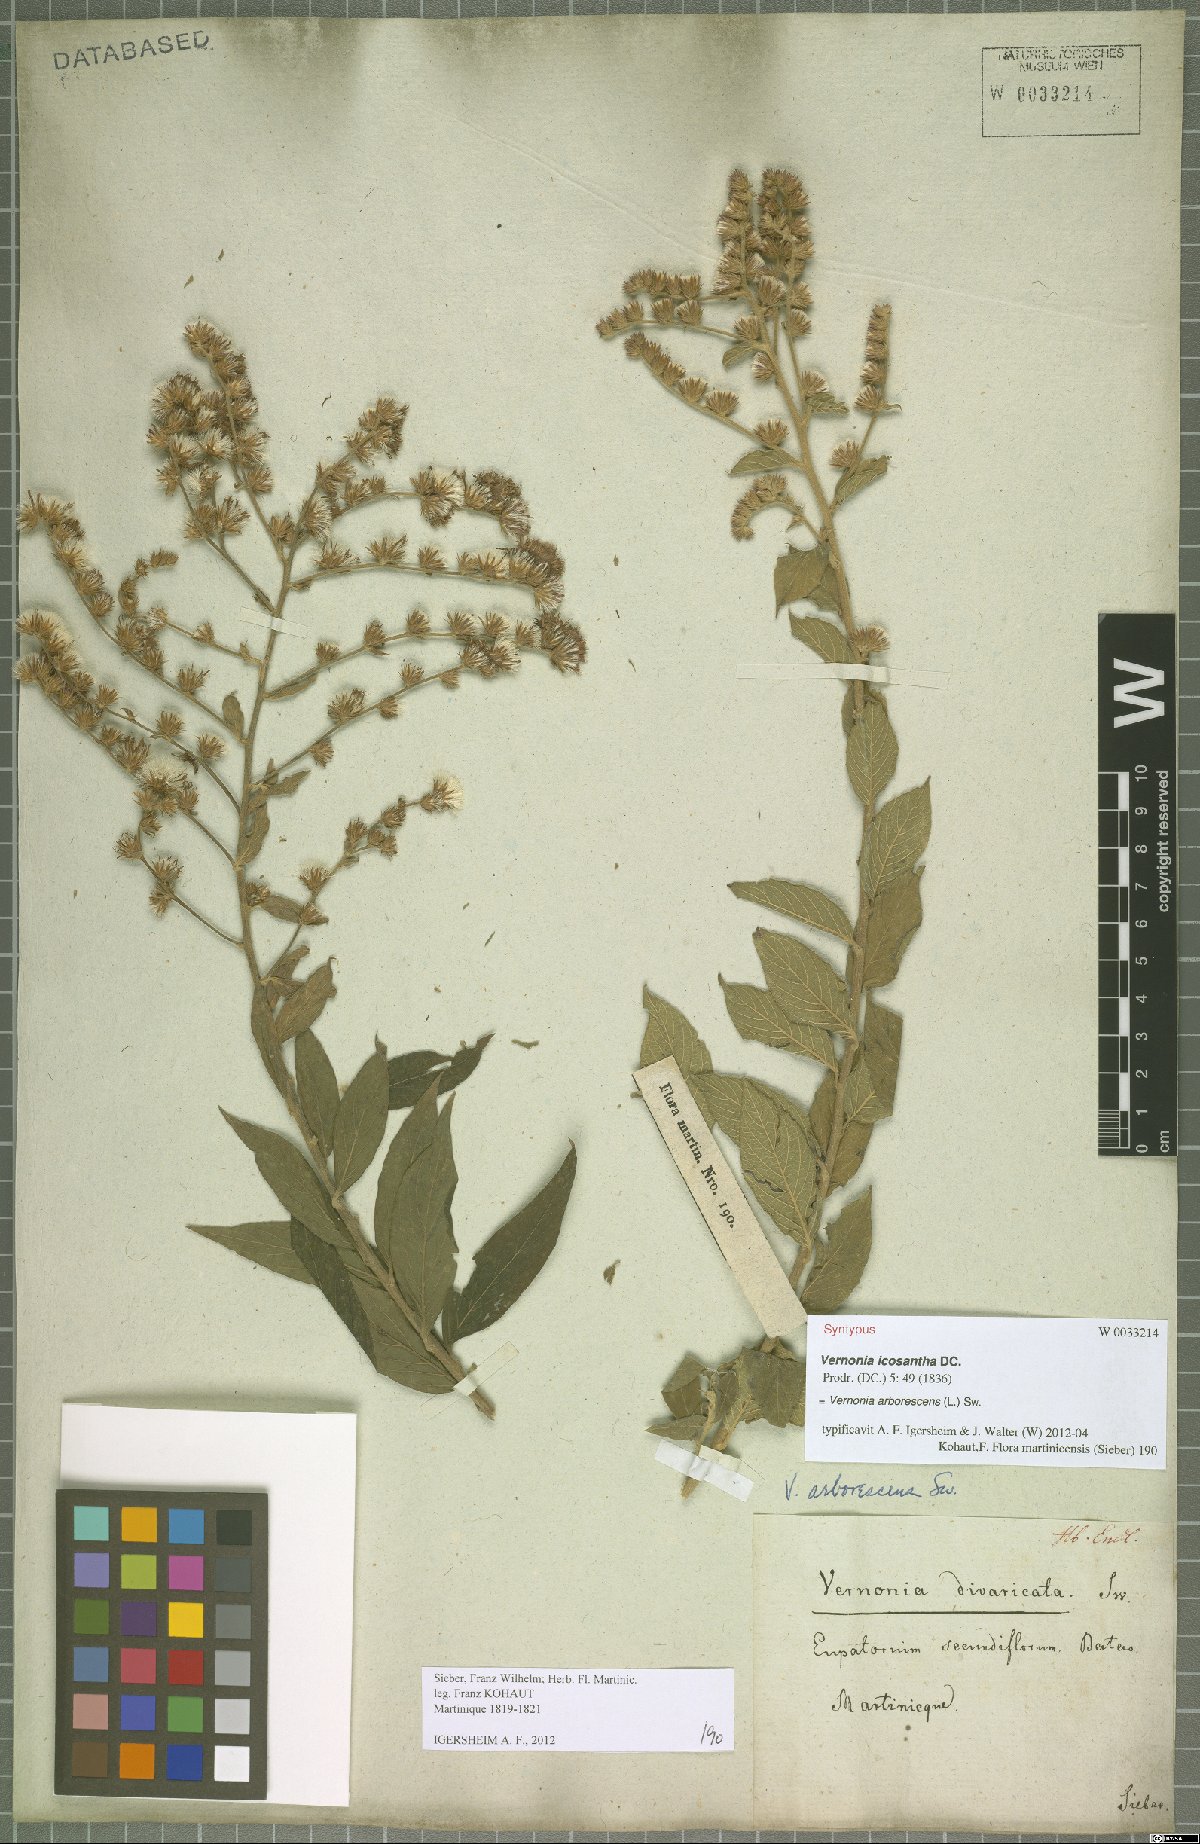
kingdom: Plantae
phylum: Tracheophyta
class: Magnoliopsida
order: Asterales
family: Asteraceae
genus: Lepidaploa
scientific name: Lepidaploa arborescens
